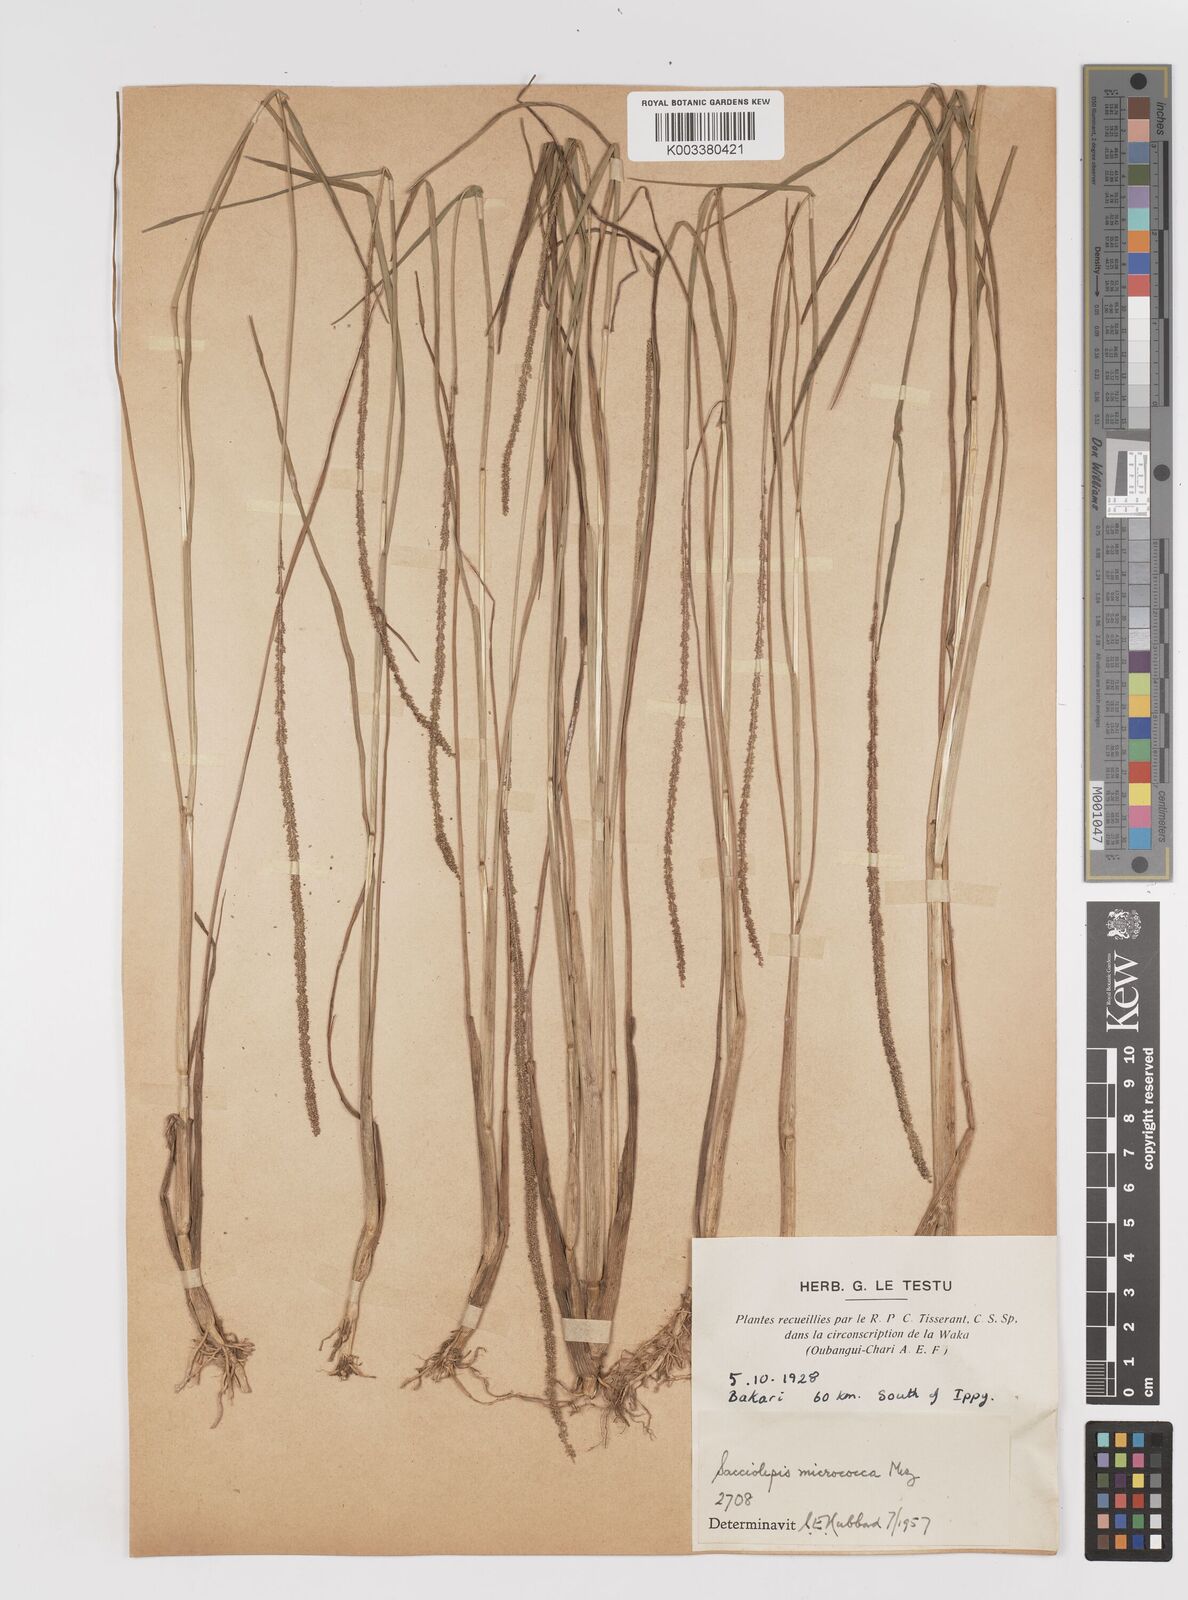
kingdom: Plantae
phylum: Tracheophyta
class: Liliopsida
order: Poales
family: Poaceae
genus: Sacciolepis
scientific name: Sacciolepis micrococca
